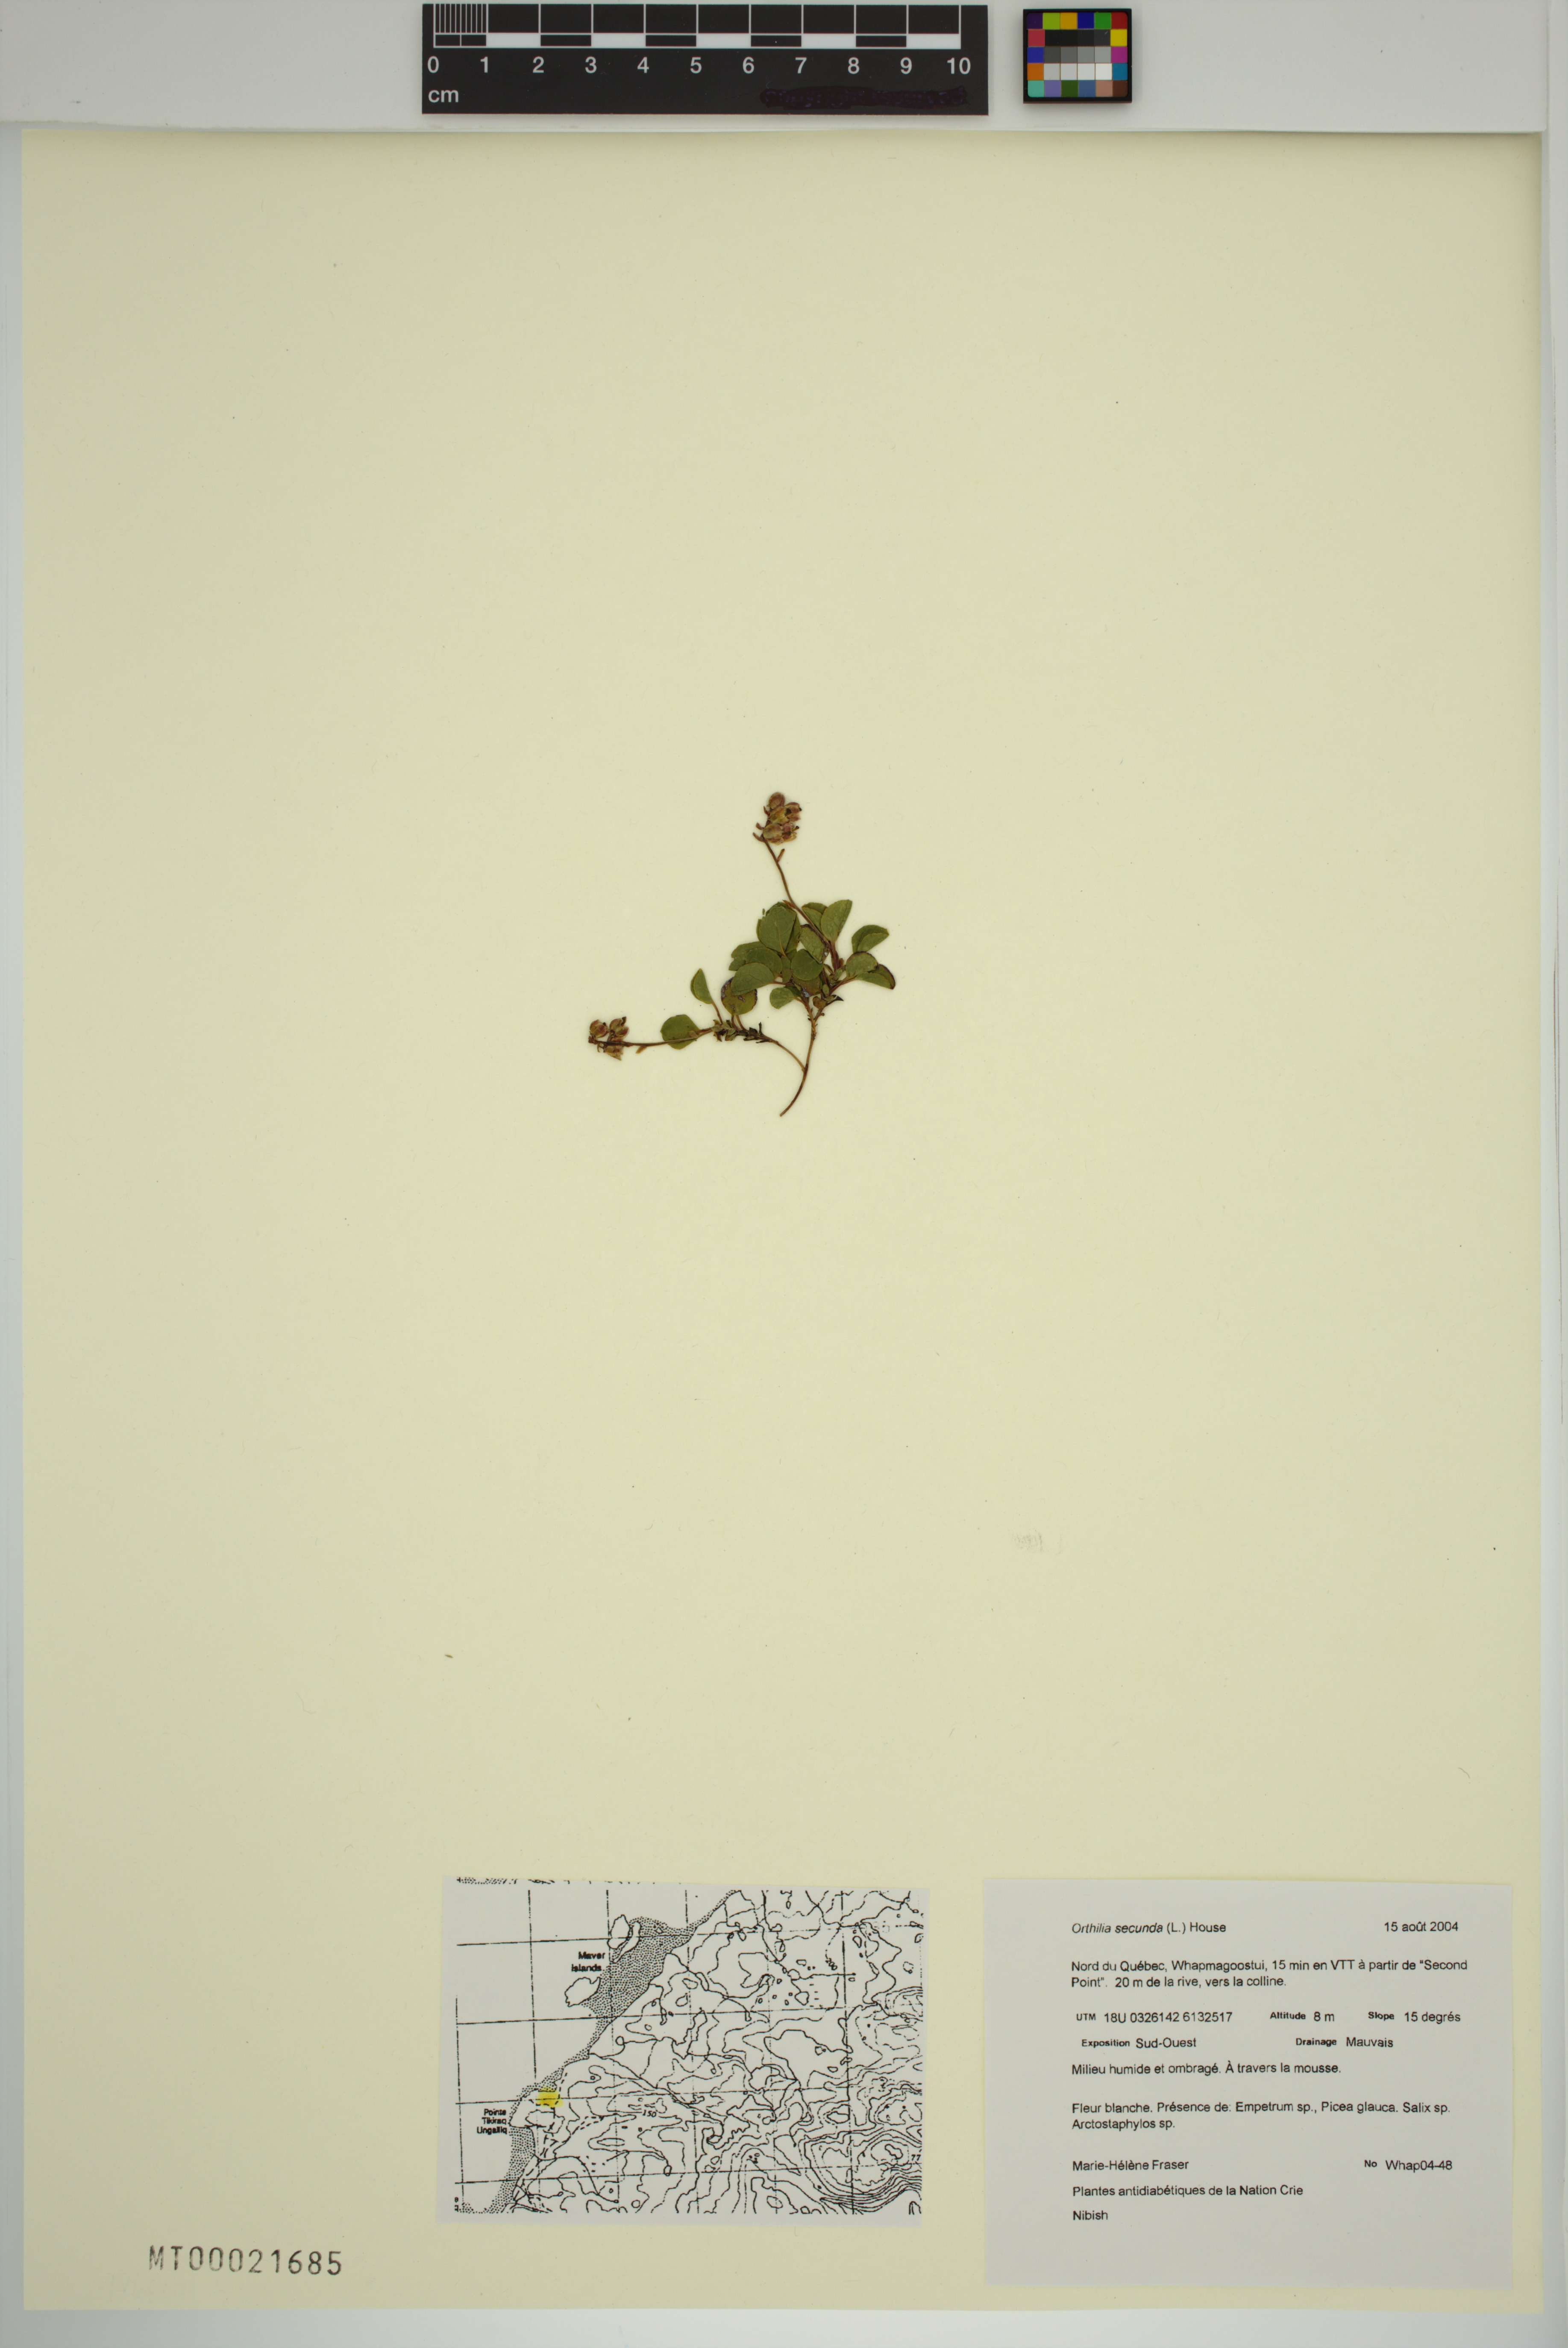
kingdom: Plantae
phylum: Tracheophyta
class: Magnoliopsida
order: Ericales
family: Ericaceae
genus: Orthilia
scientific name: Orthilia secunda
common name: One-sided orthilia
